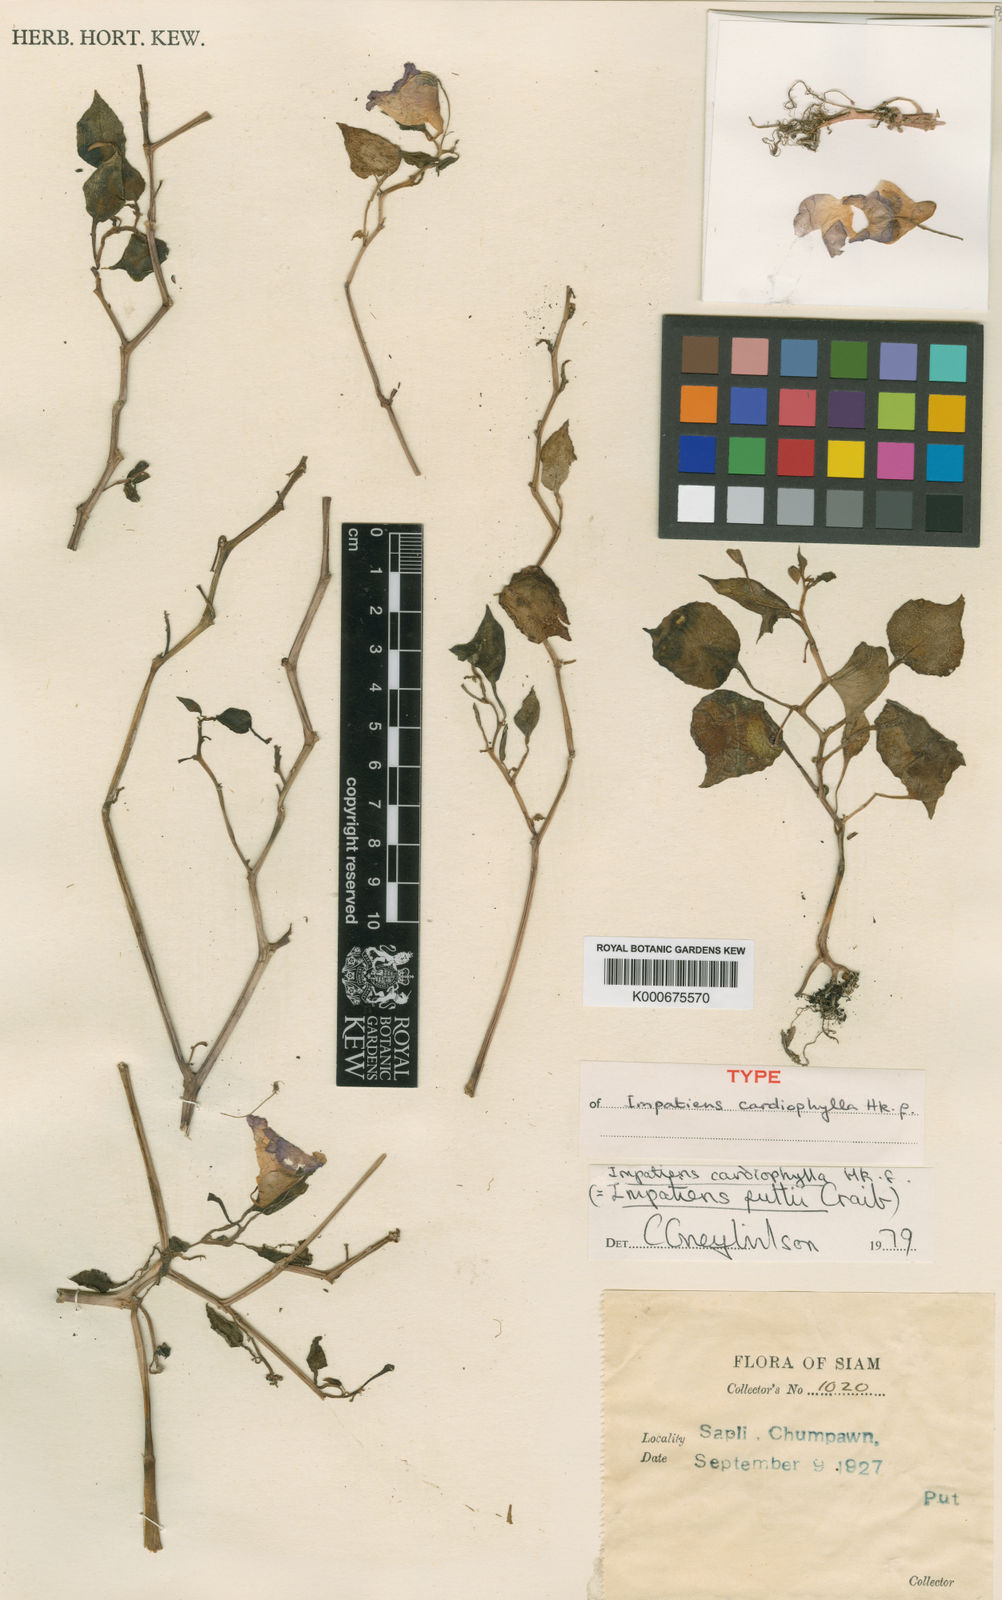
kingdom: Plantae
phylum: Tracheophyta
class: Magnoliopsida
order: Ericales
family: Balsaminaceae
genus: Impatiens
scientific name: Impatiens cardiophylla
